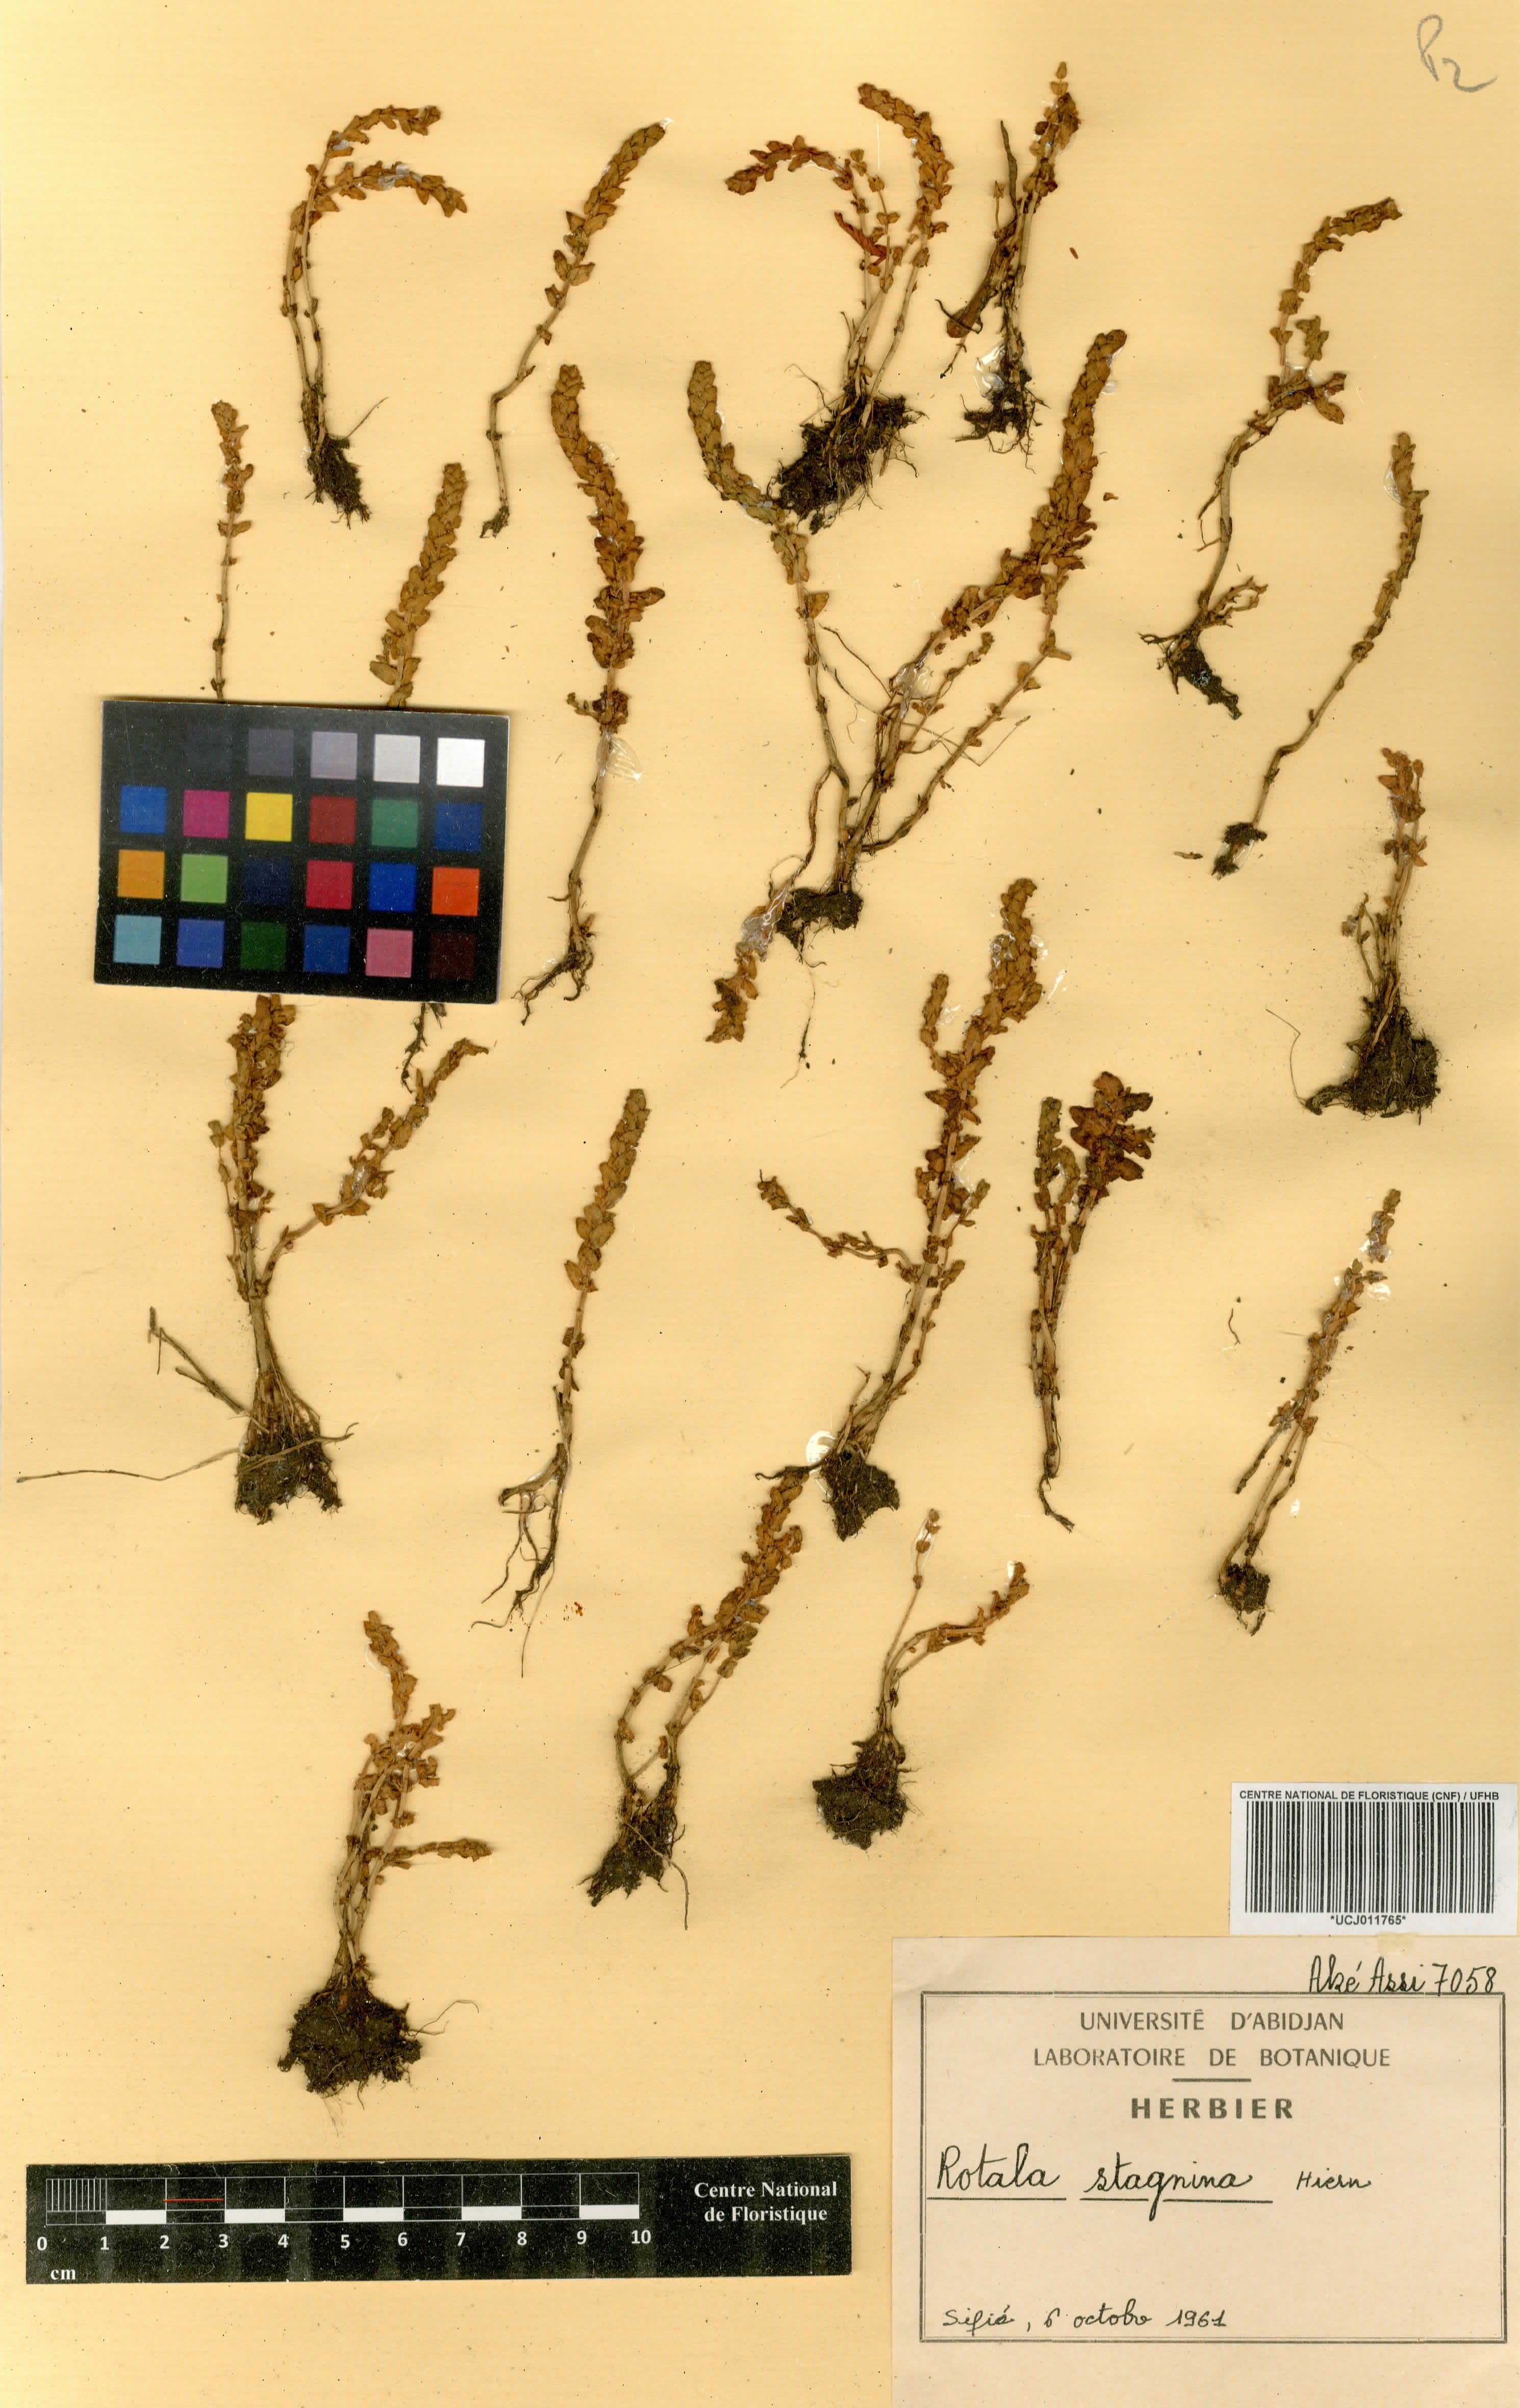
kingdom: Plantae
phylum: Tracheophyta
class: Magnoliopsida
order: Myrtales
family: Lythraceae
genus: Rotala
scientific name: Rotala stagnina
